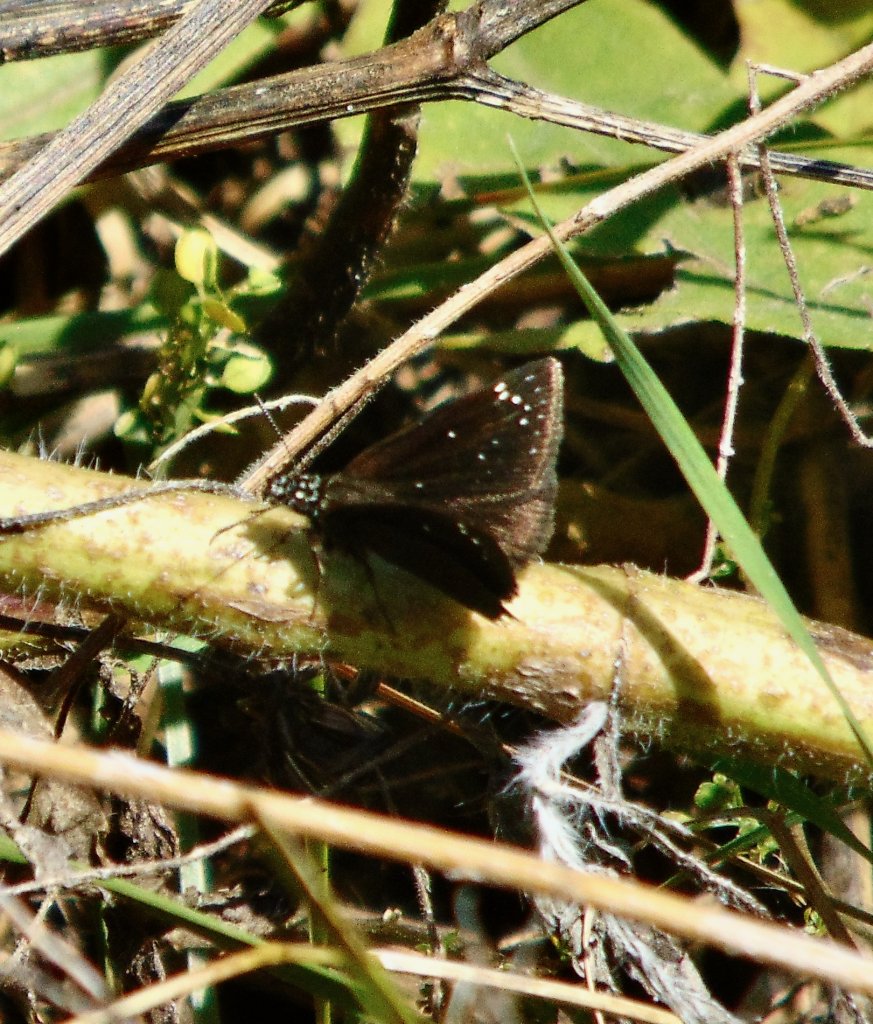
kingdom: Animalia
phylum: Arthropoda
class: Insecta
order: Lepidoptera
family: Hesperiidae
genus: Pholisora
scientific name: Pholisora catullus
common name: Common Sootywing
